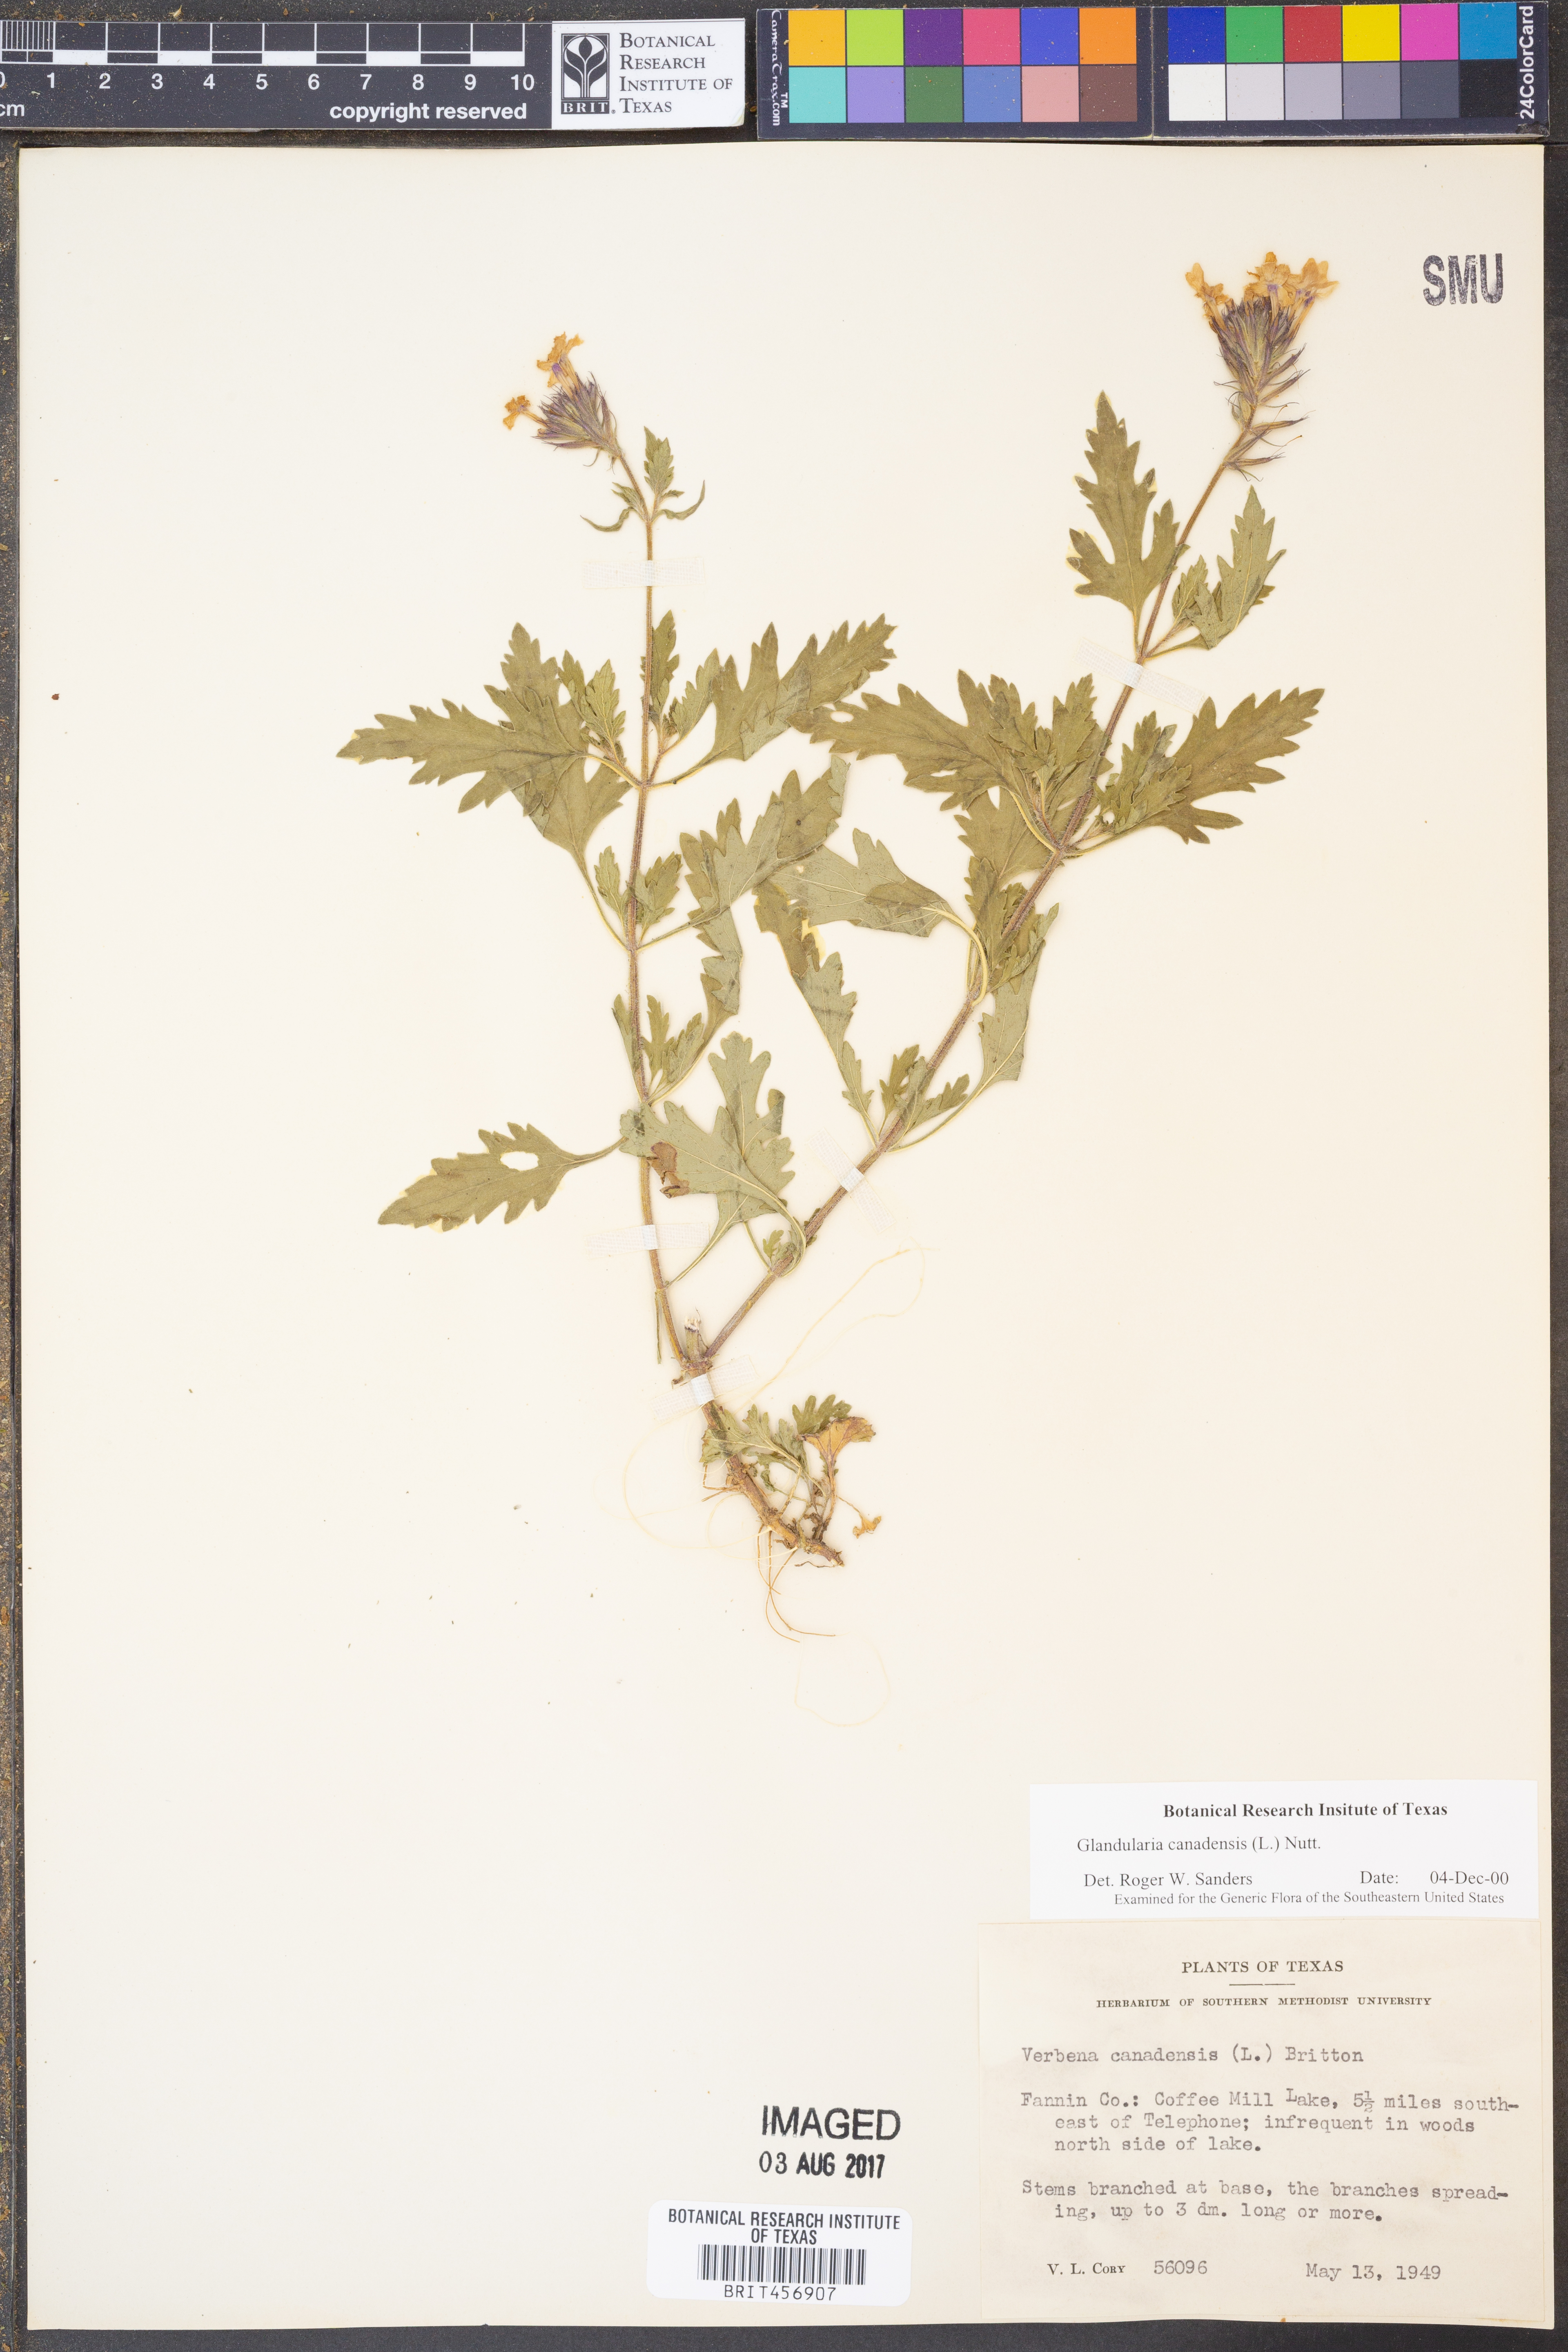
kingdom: Plantae
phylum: Tracheophyta
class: Magnoliopsida
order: Lamiales
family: Verbenaceae
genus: Verbena
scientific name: Verbena canadensis
